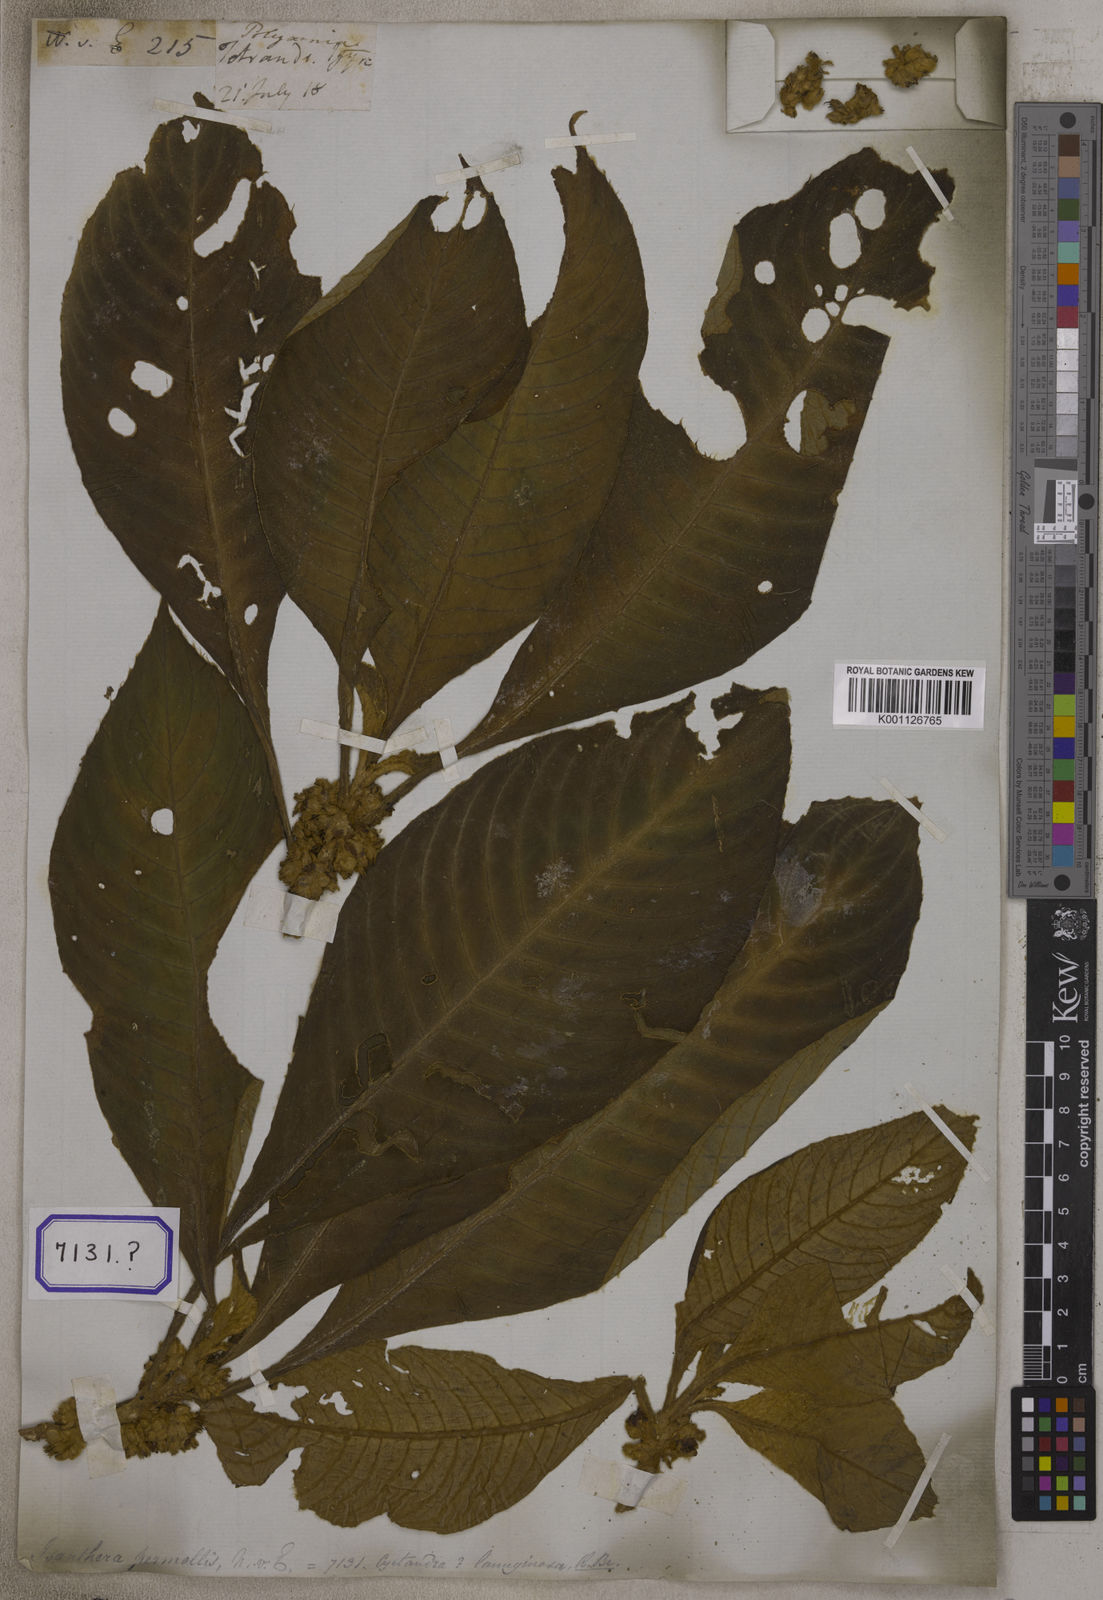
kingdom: Plantae
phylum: Tracheophyta
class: Magnoliopsida
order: Lamiales
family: Gesneriaceae
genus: Rhynchotechum
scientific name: Rhynchotechum permolle
